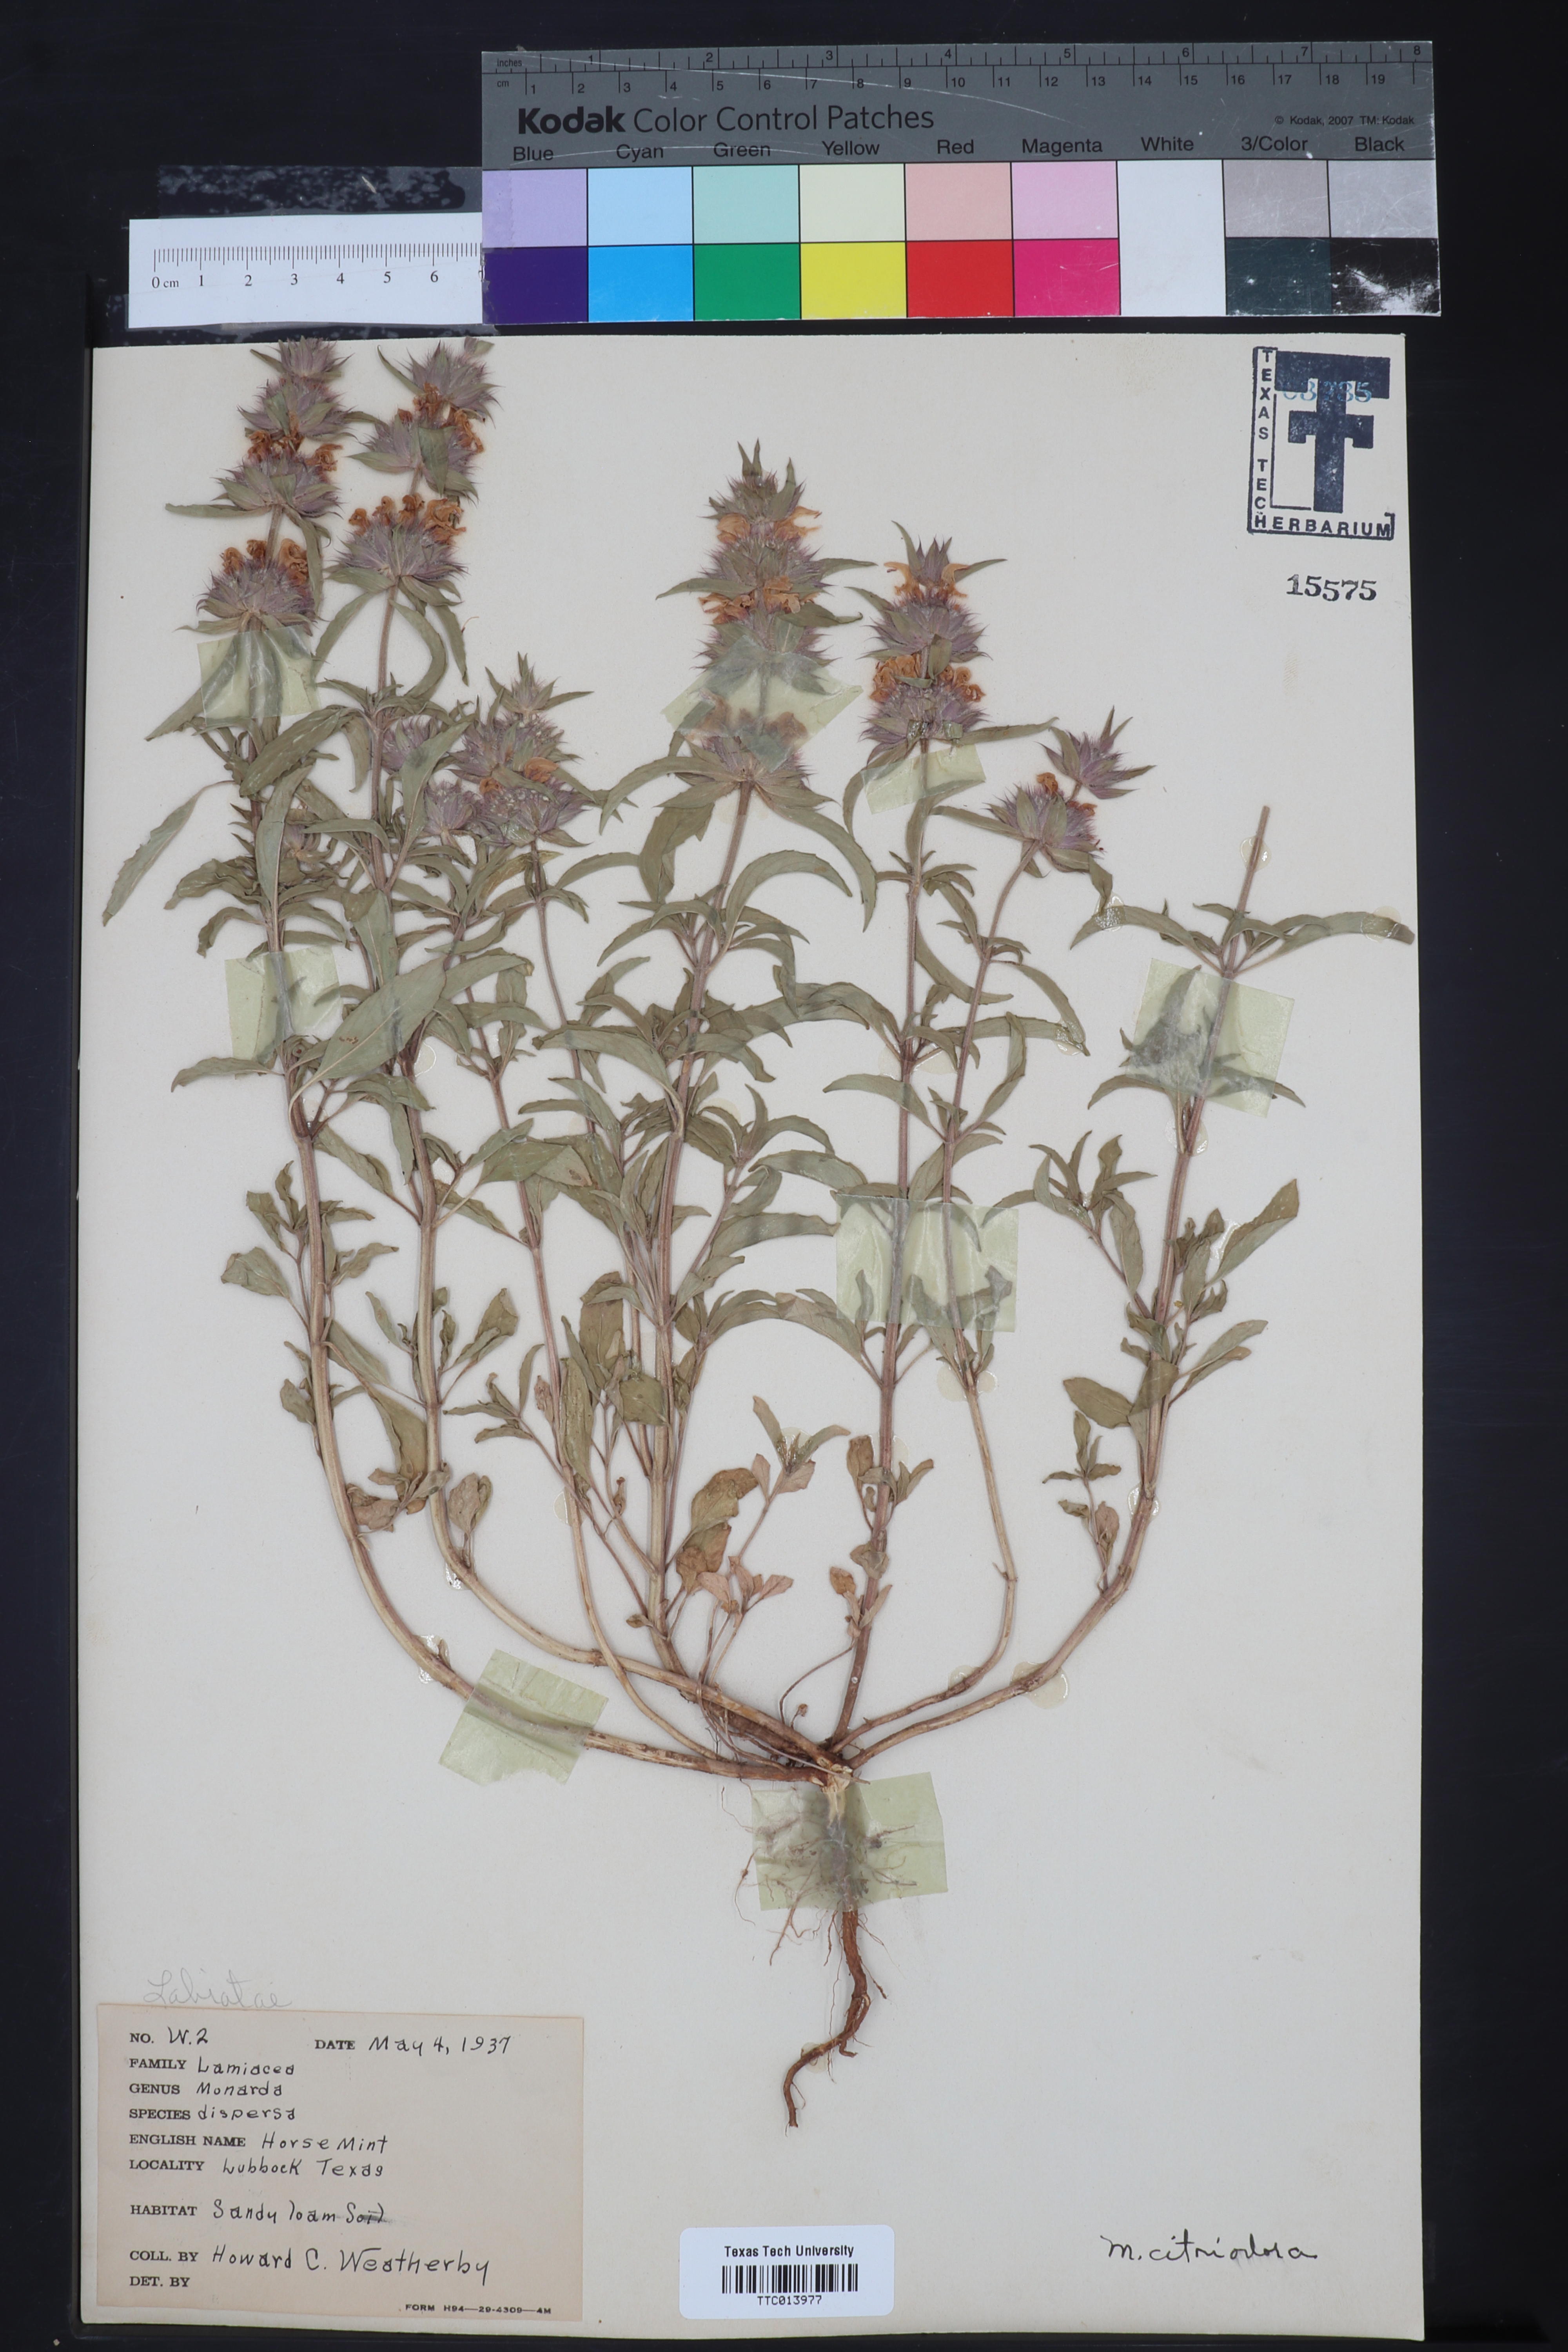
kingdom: Plantae
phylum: Tracheophyta
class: Magnoliopsida
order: Lamiales
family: Lamiaceae
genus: Monarda
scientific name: Monarda citriodora
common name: Lemon beebalm
